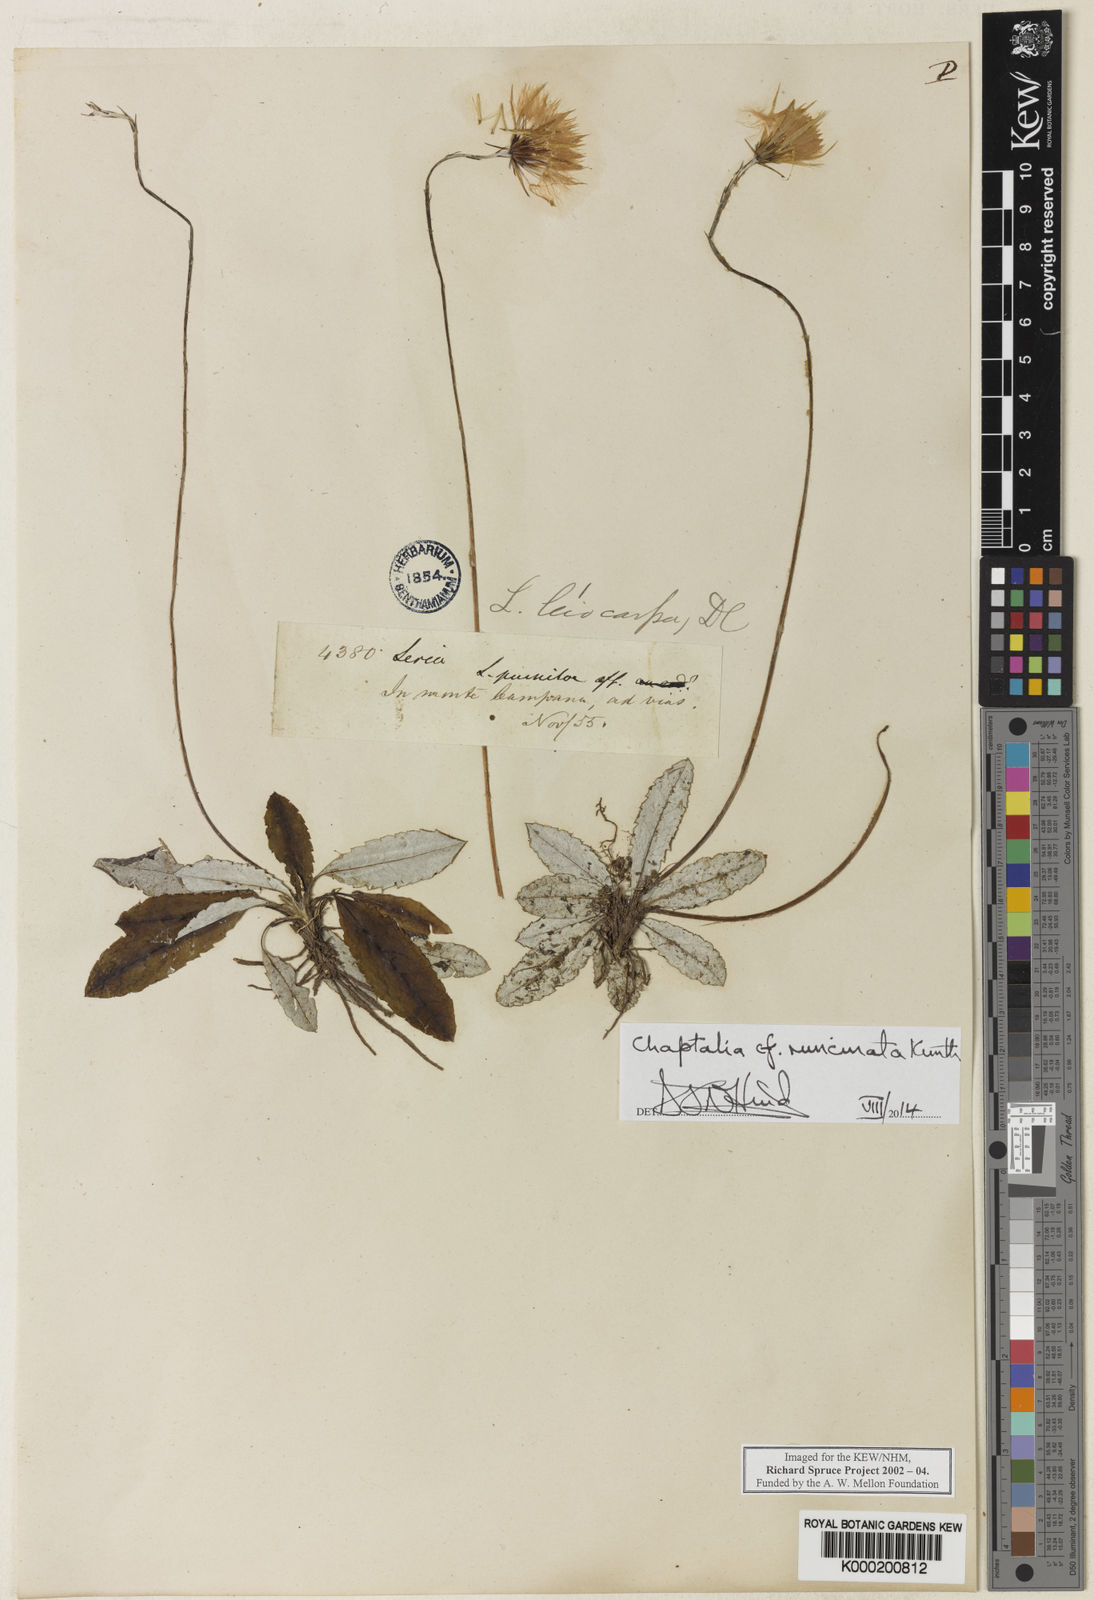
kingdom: Plantae
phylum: Tracheophyta
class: Magnoliopsida
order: Asterales
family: Asteraceae
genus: Chaptalia
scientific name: Chaptalia runcinata
